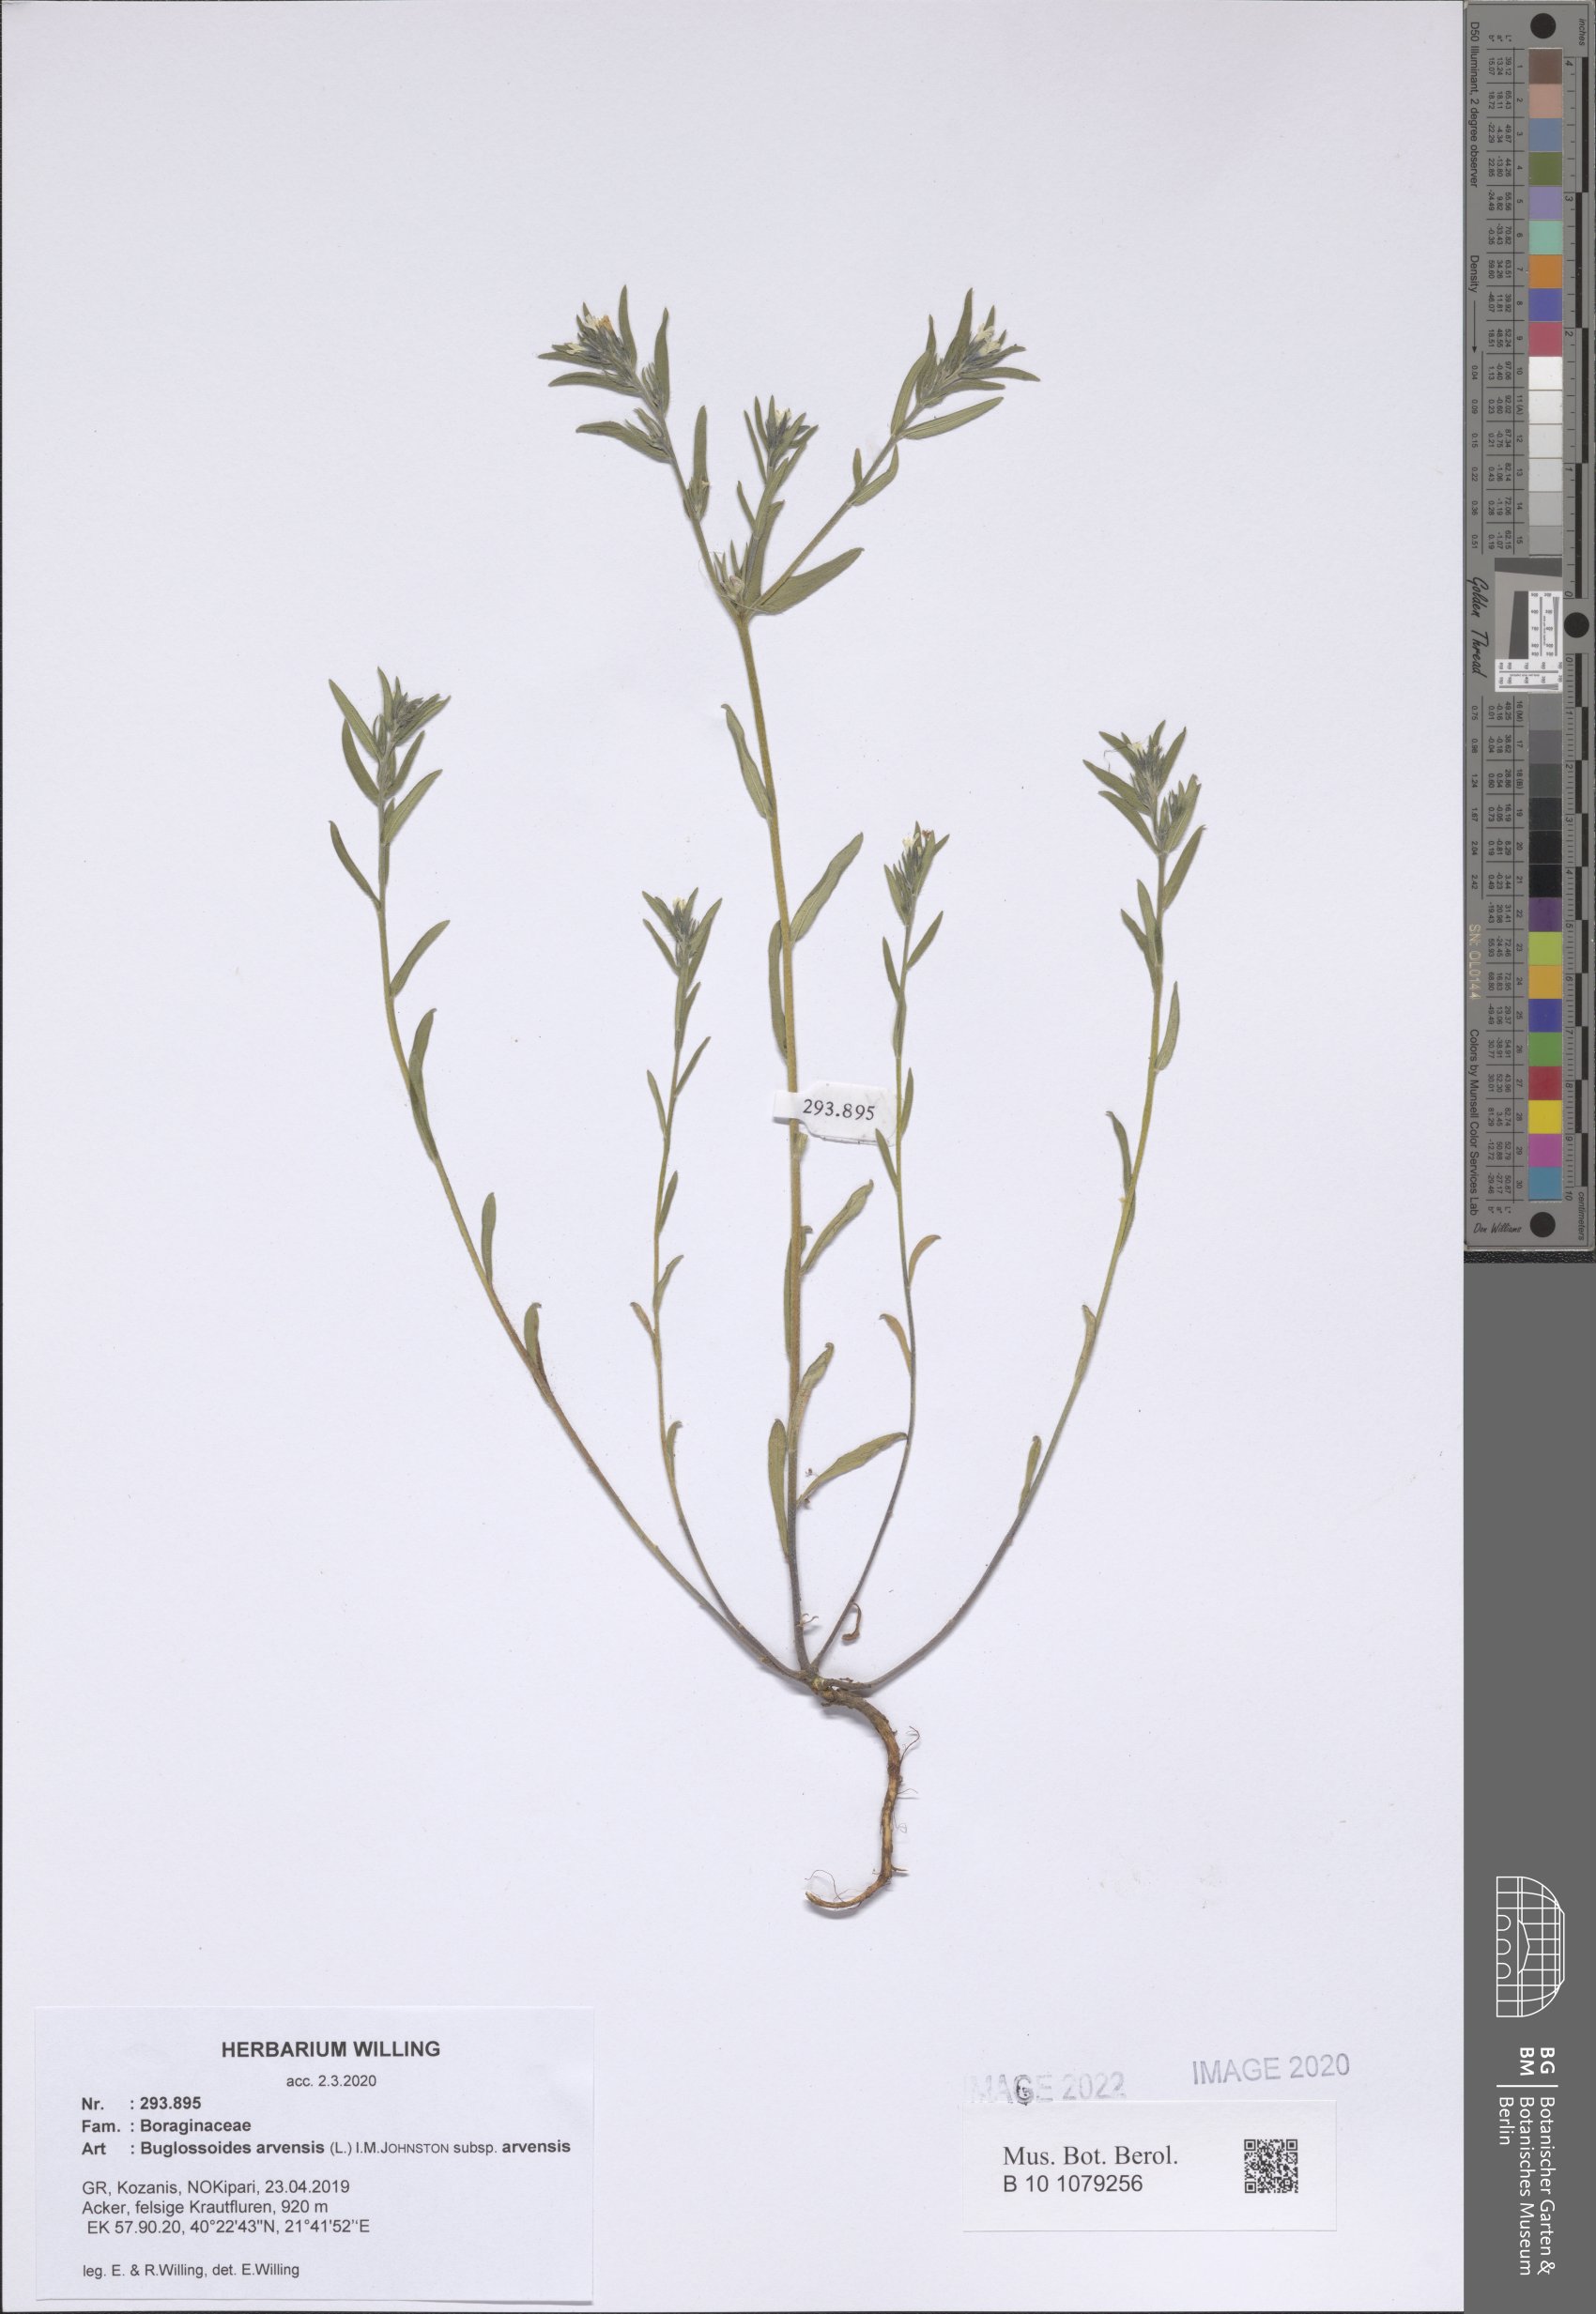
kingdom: Plantae
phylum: Tracheophyta
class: Magnoliopsida
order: Boraginales
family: Boraginaceae
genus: Buglossoides
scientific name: Buglossoides arvensis
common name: Corn gromwell
